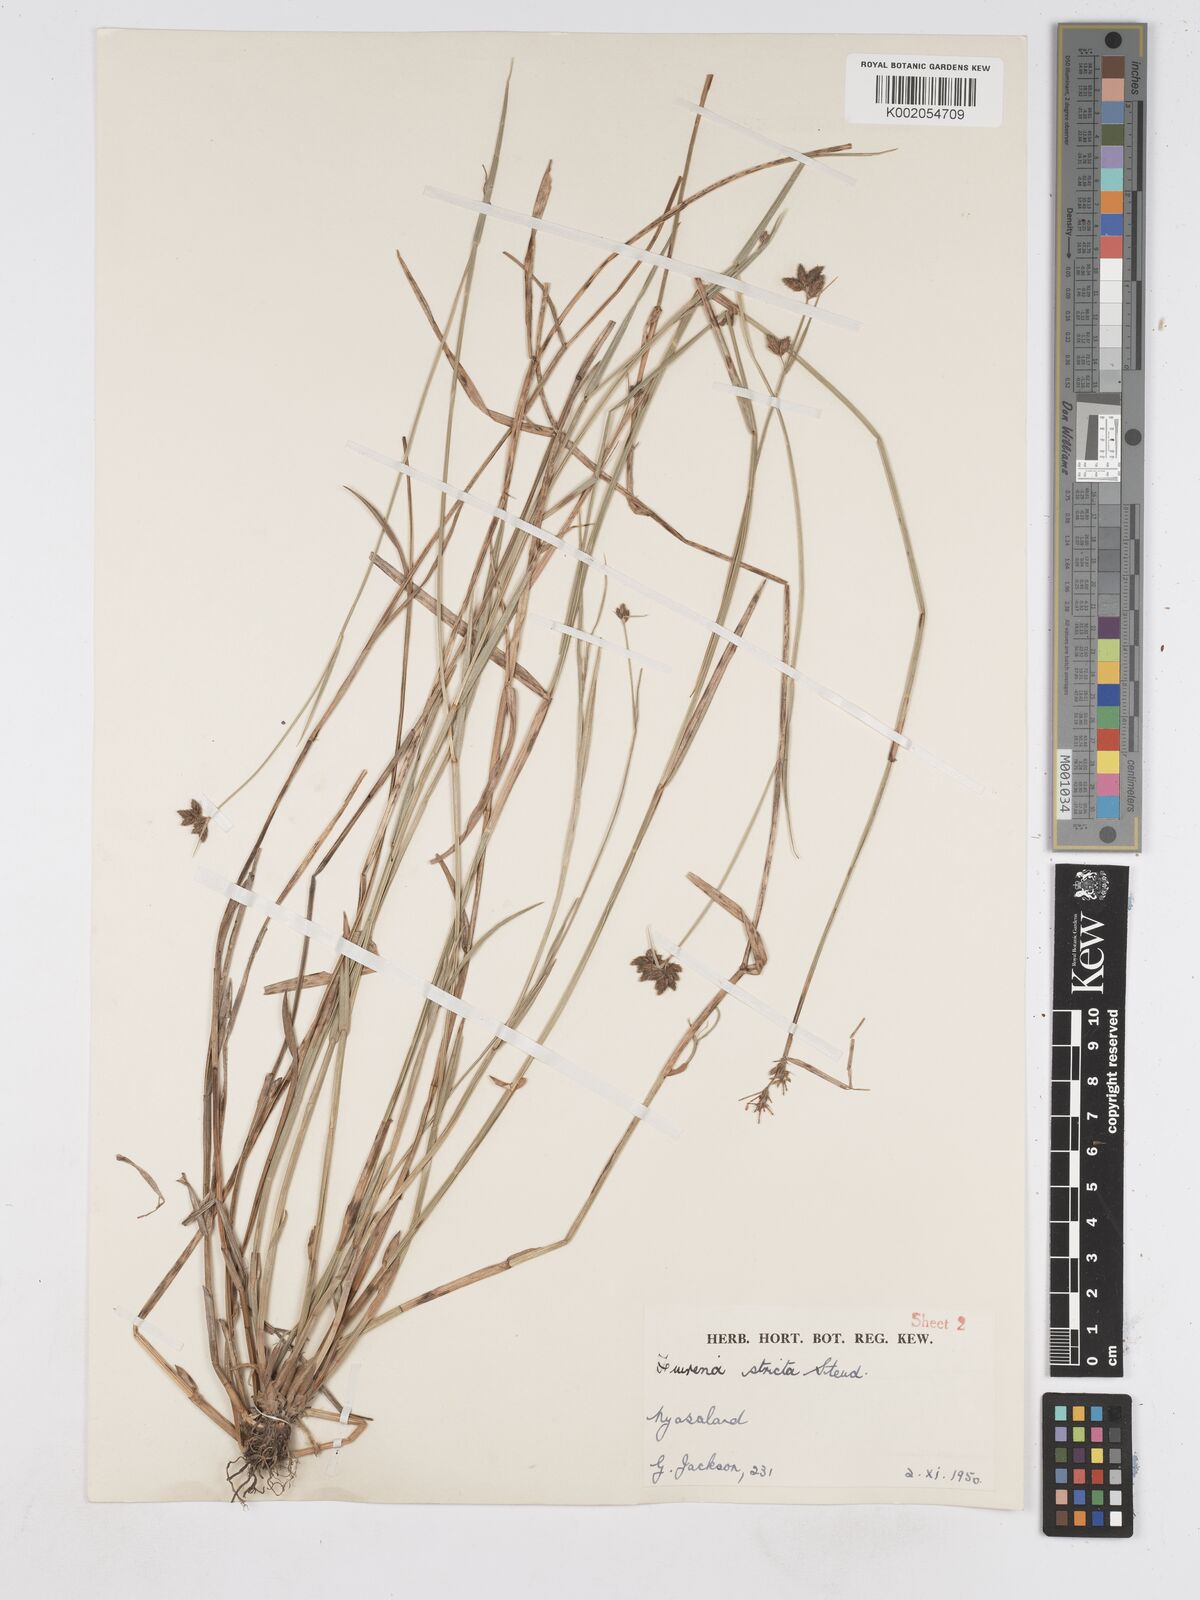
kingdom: Plantae
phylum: Tracheophyta
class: Liliopsida
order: Poales
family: Cyperaceae
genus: Fuirena
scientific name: Fuirena stricta
